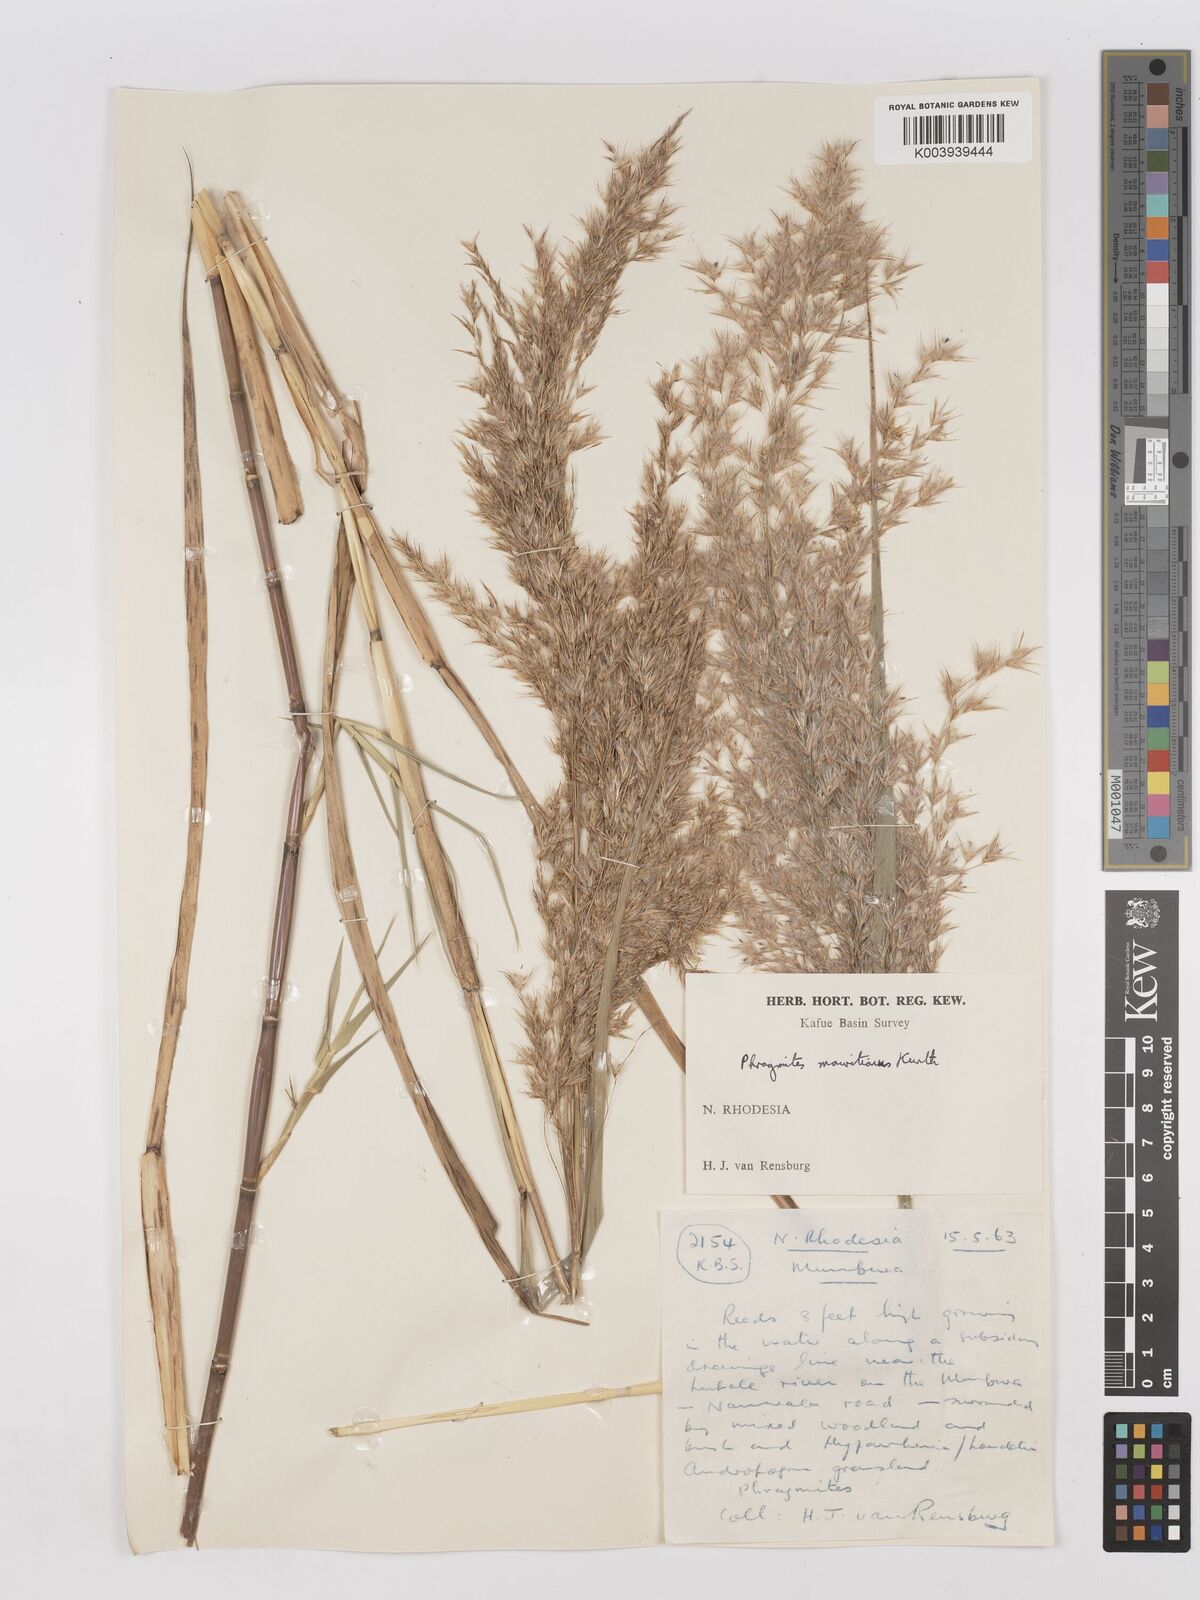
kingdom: Plantae
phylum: Tracheophyta
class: Liliopsida
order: Poales
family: Poaceae
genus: Phragmites
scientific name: Phragmites mauritianus
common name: Reed grass
